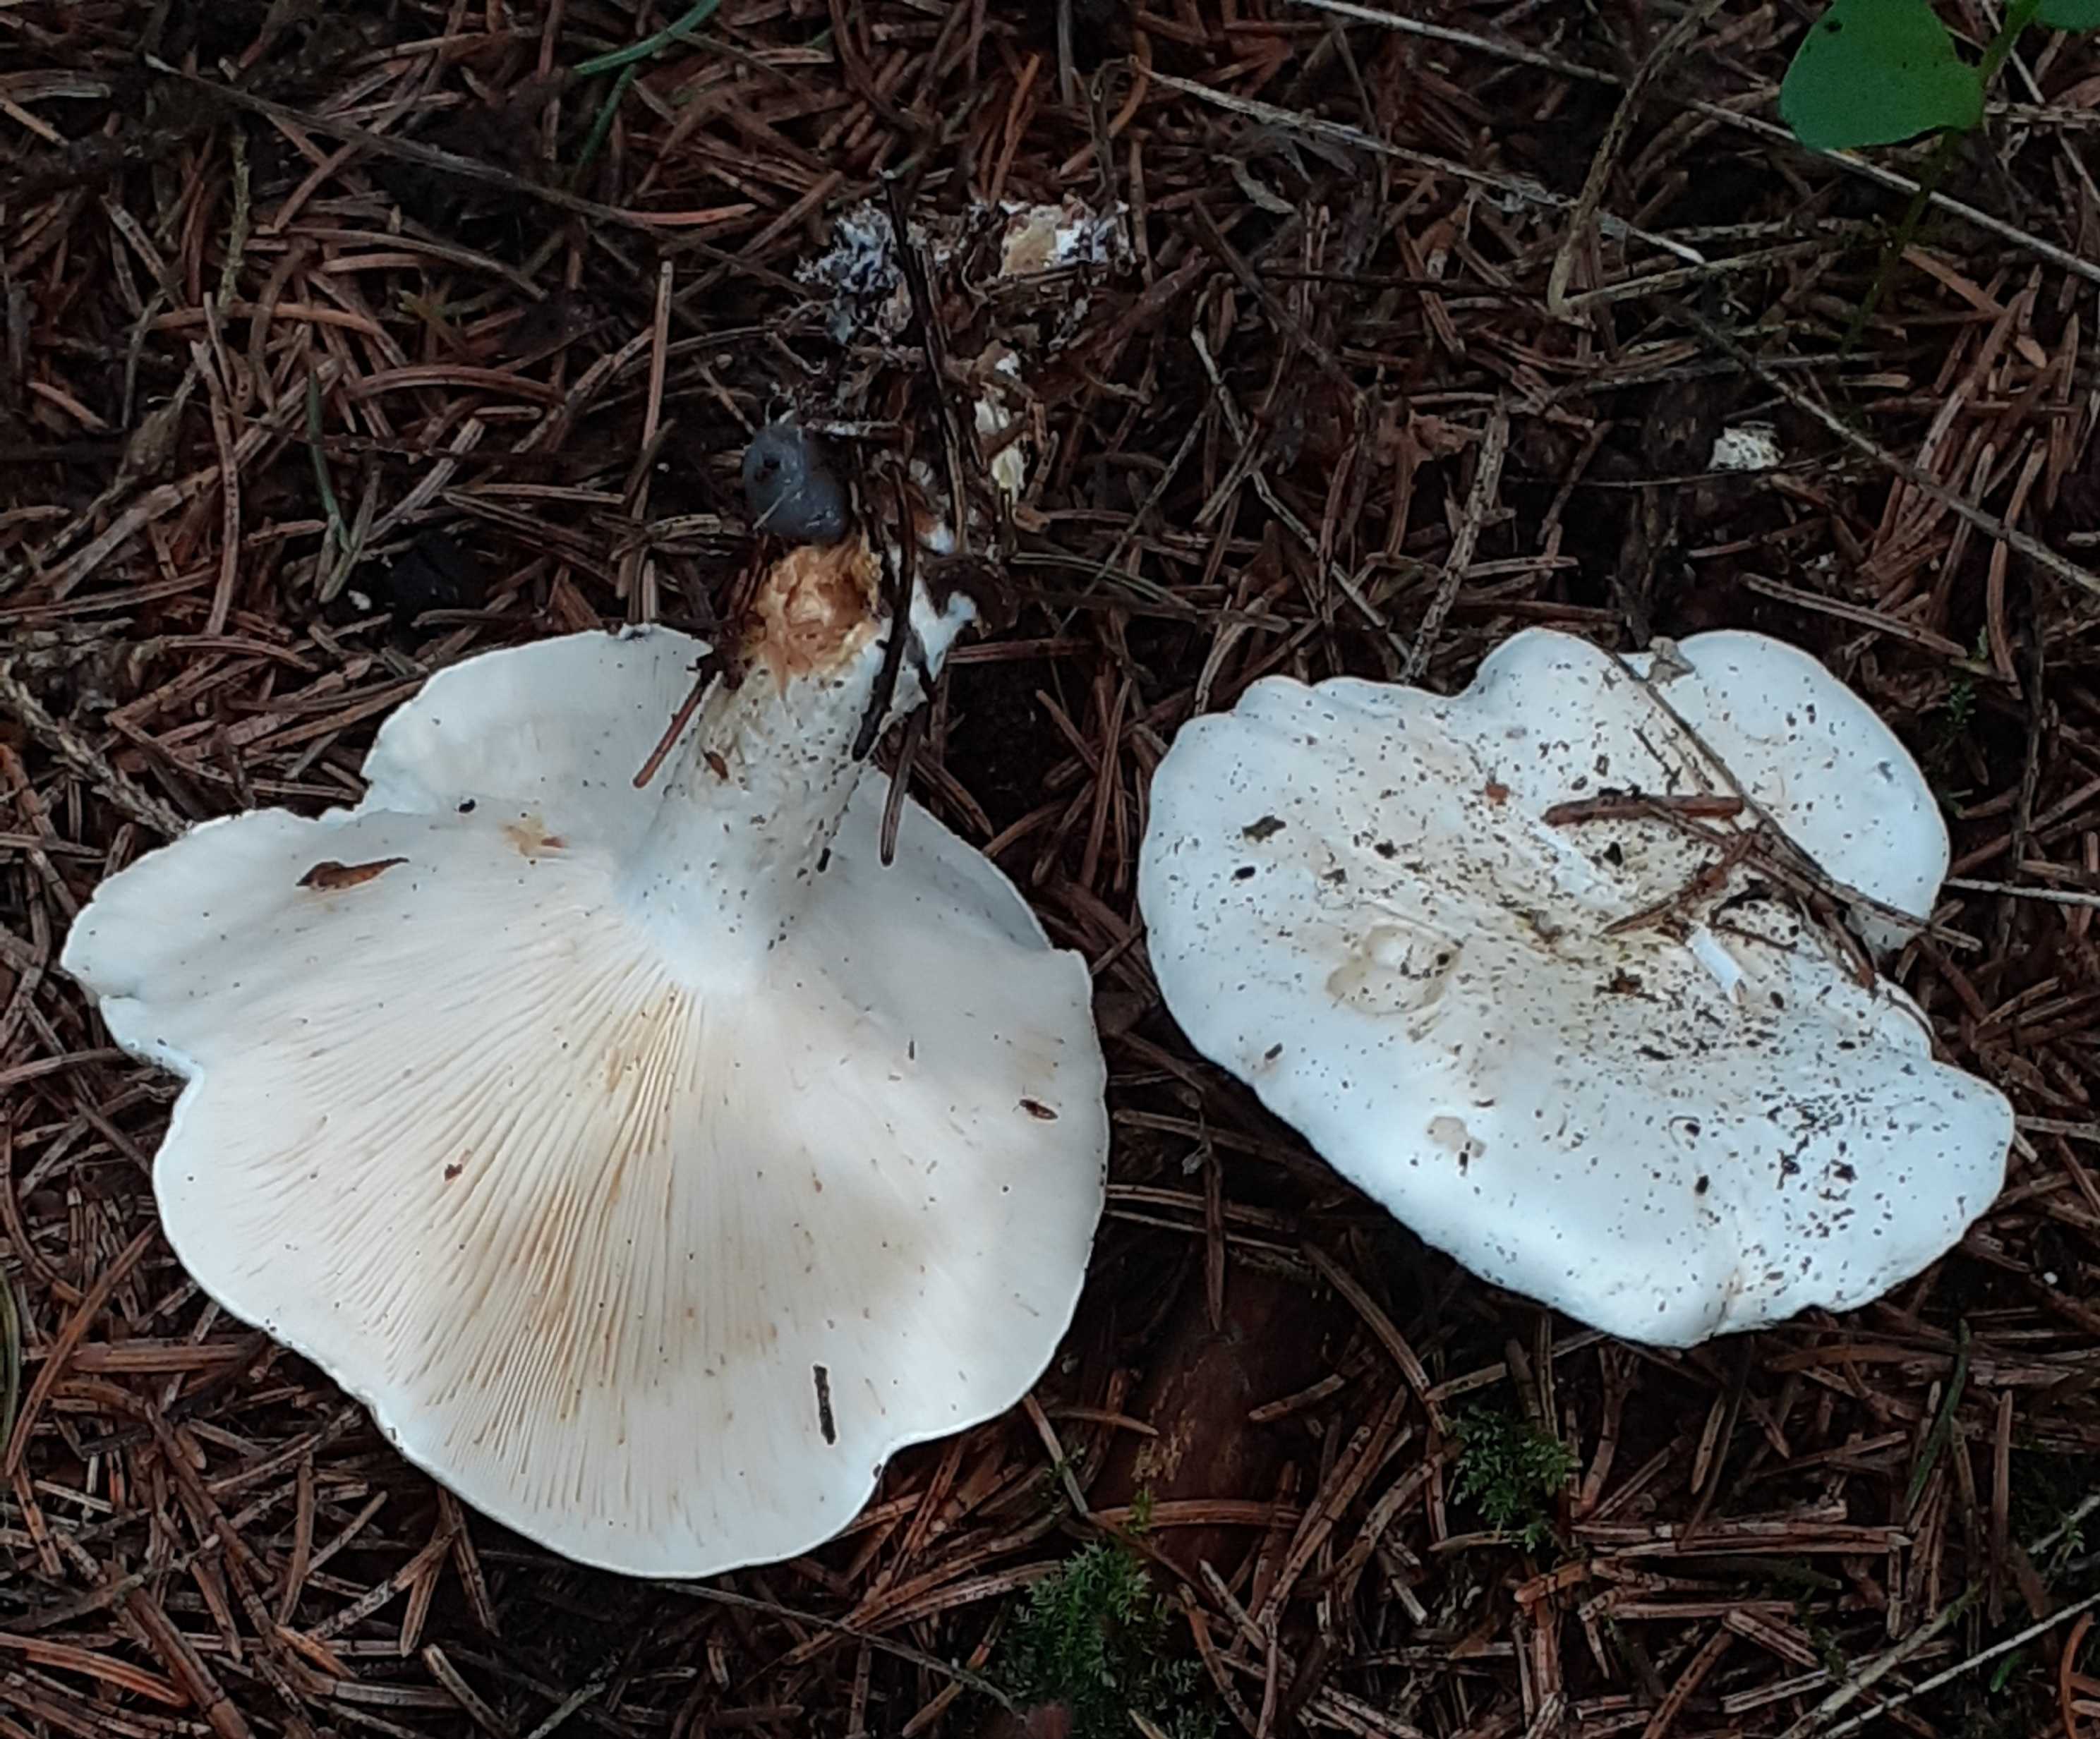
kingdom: Fungi
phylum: Basidiomycota
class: Agaricomycetes
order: Agaricales
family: Tricholomataceae
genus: Clitocybe
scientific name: Clitocybe phyllophila
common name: løv-tragthat
